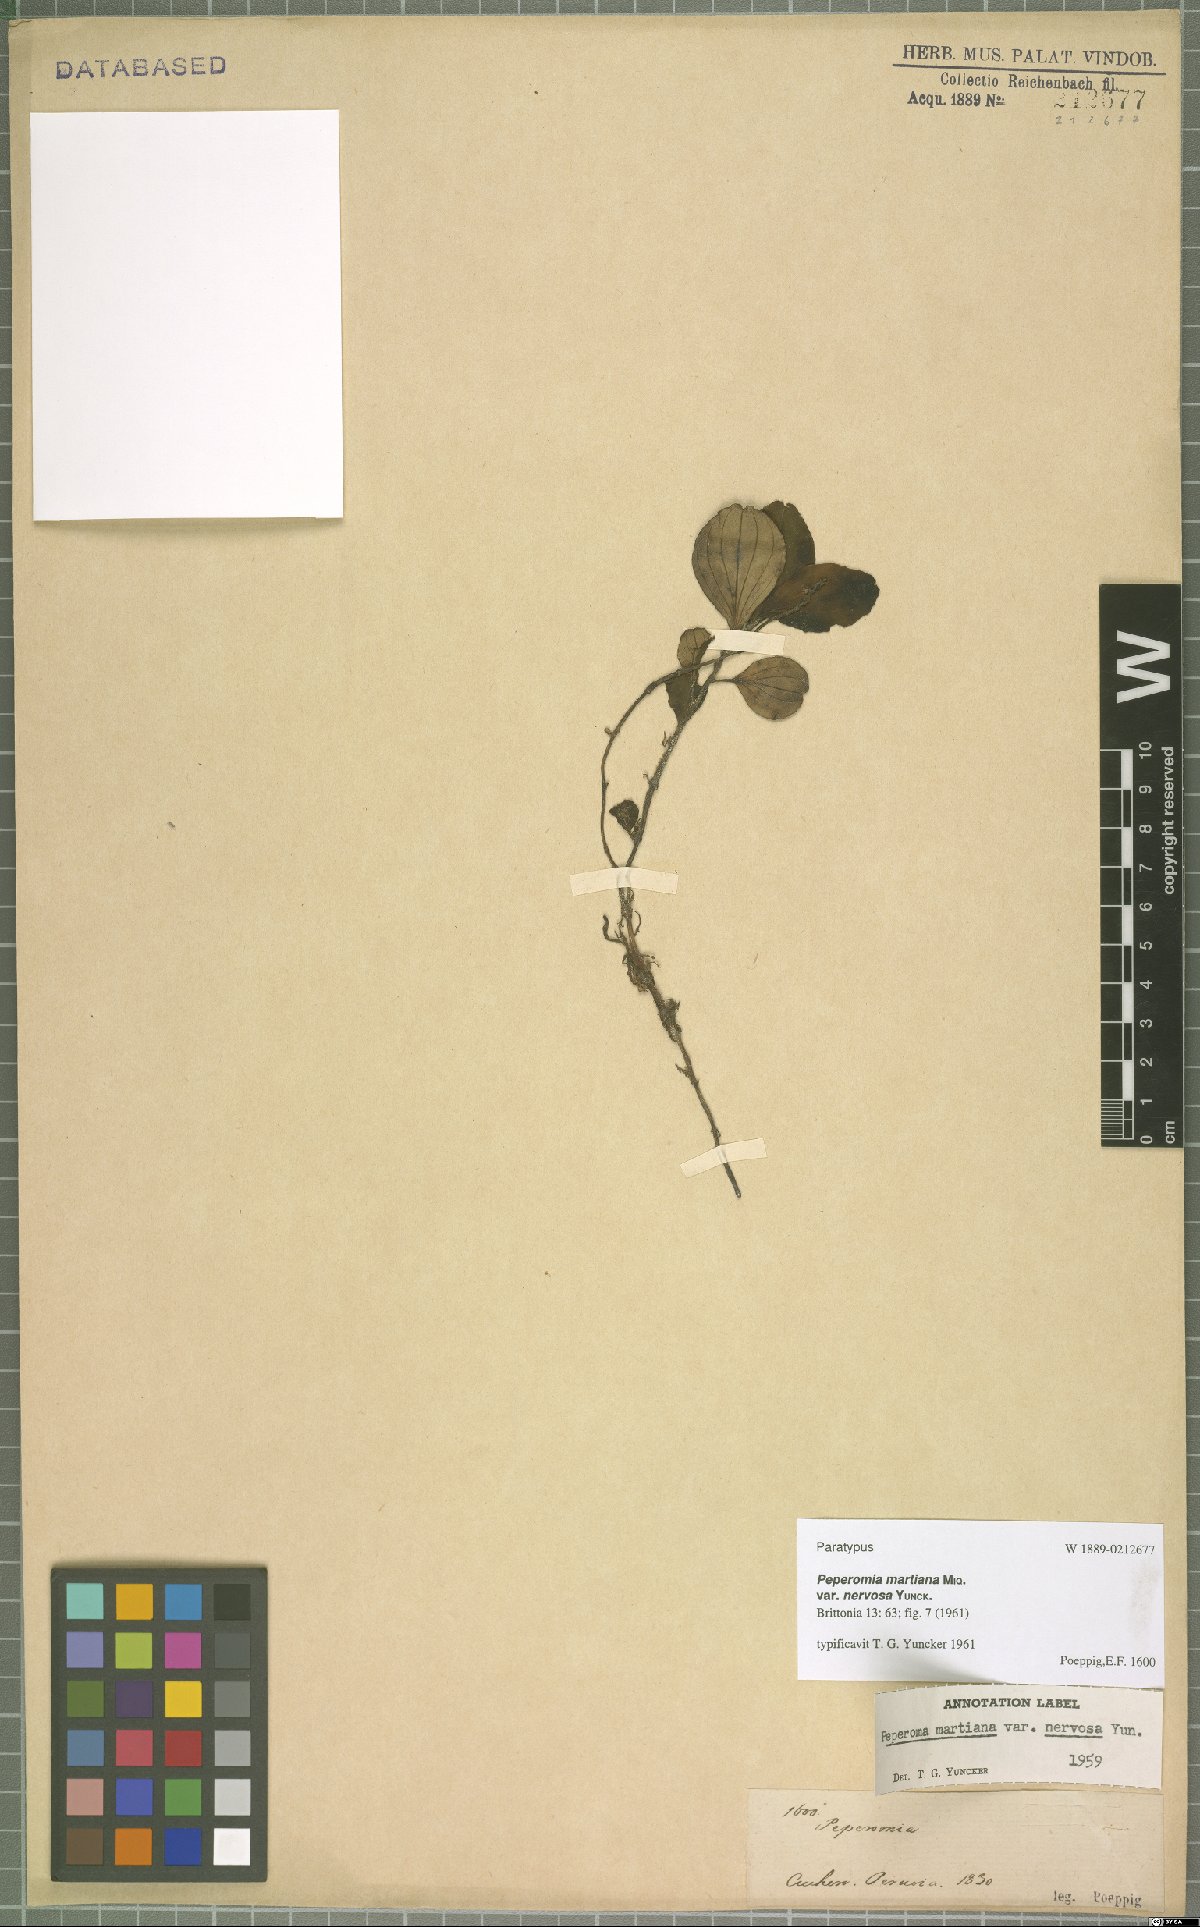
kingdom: Plantae
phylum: Tracheophyta
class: Magnoliopsida
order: Piperales
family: Piperaceae
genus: Peperomia
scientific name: Peperomia martiana
